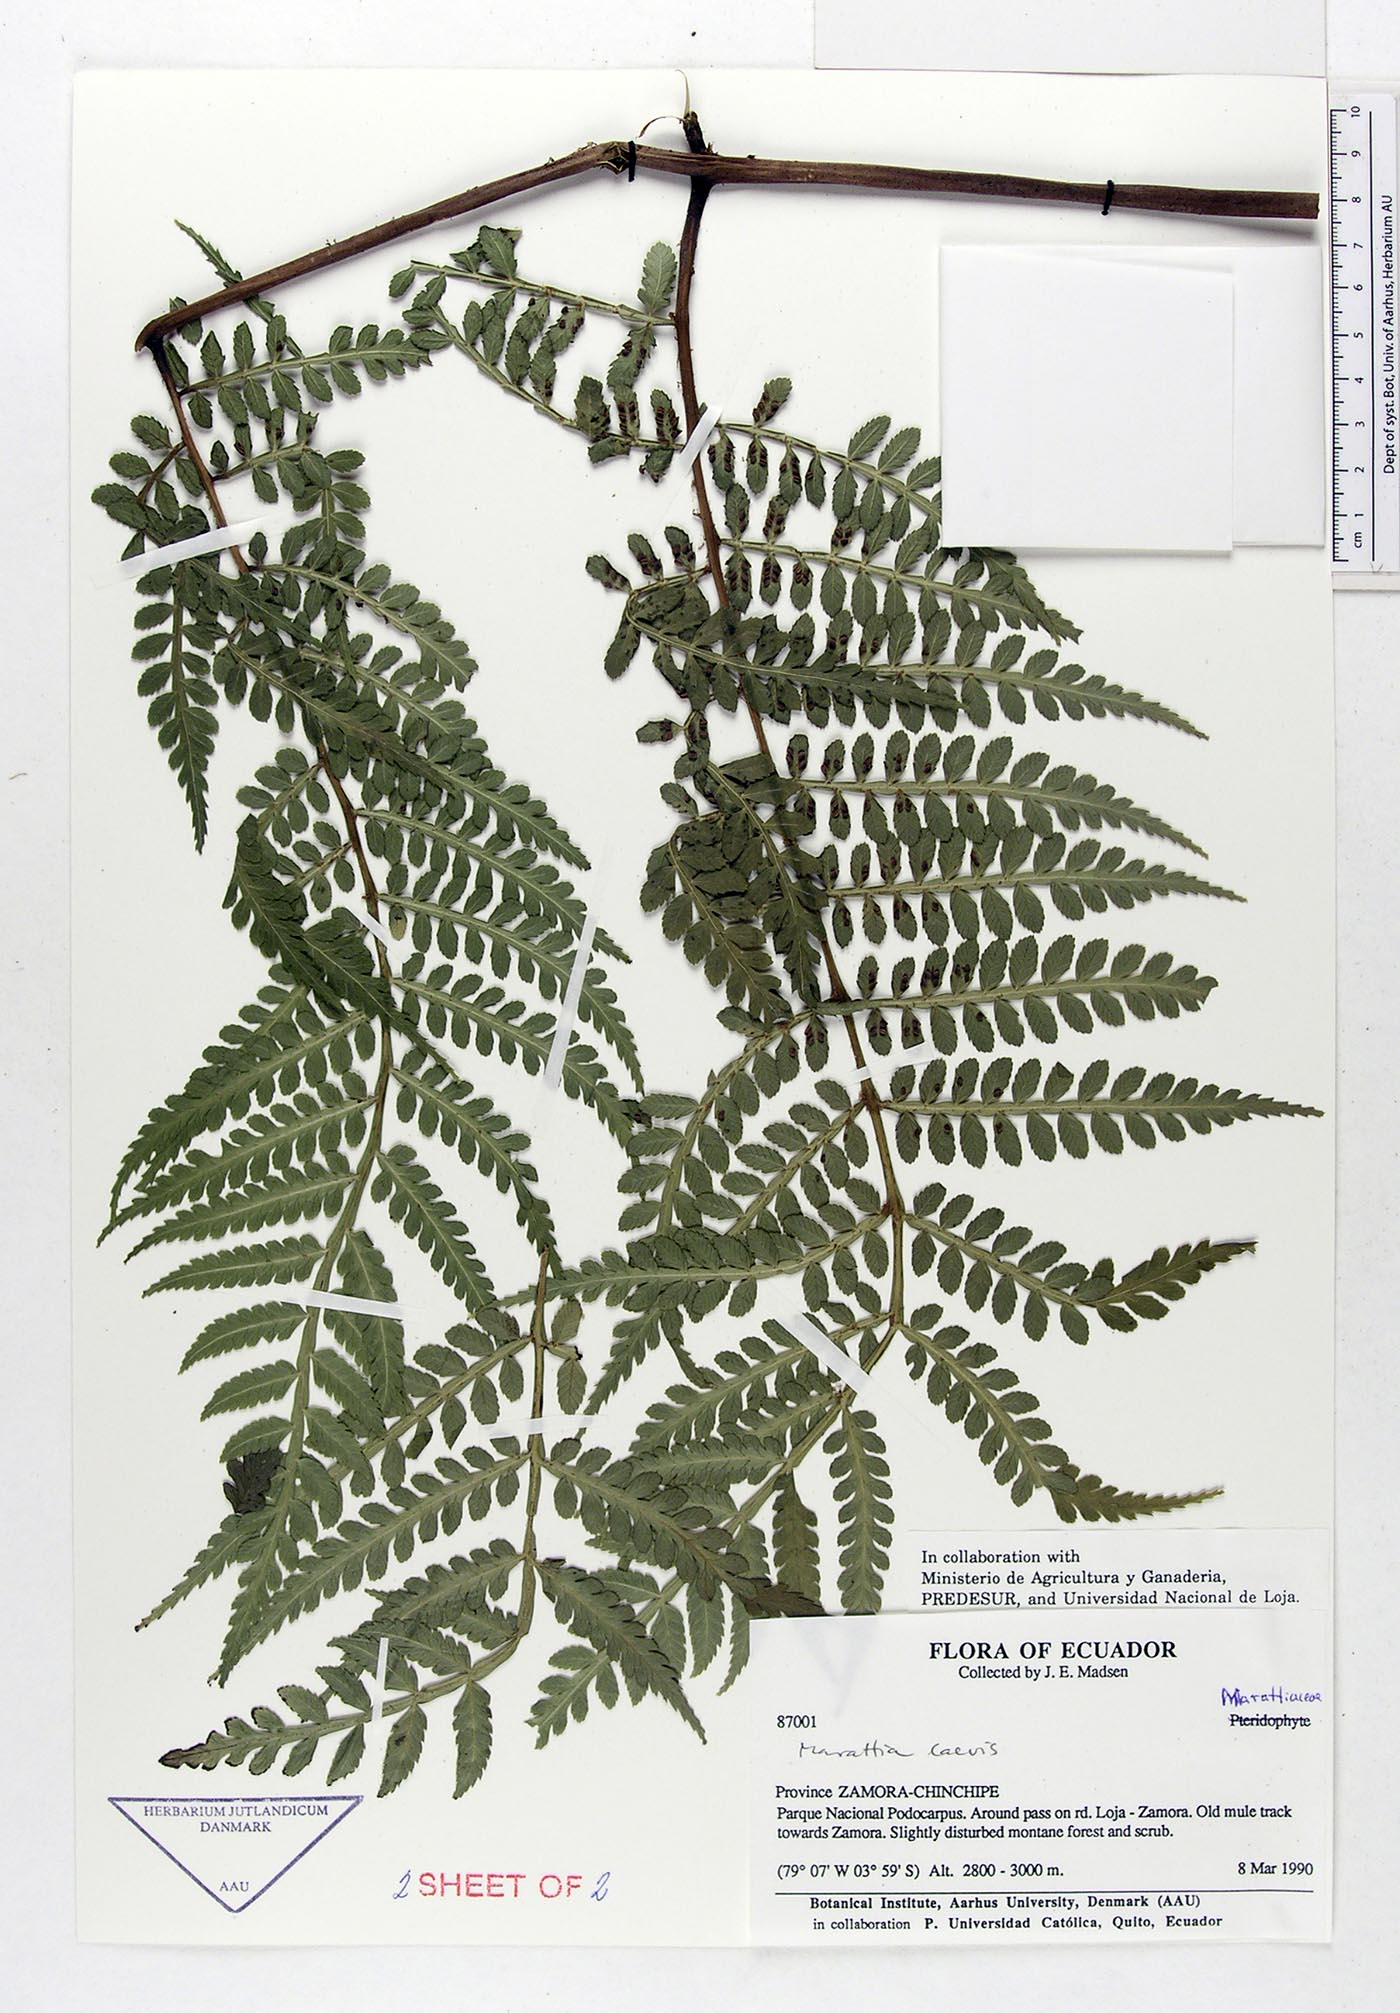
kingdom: Plantae
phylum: Tracheophyta
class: Polypodiopsida
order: Marattiales
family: Marattiaceae
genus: Eupodium
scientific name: Eupodium kaulfussii
